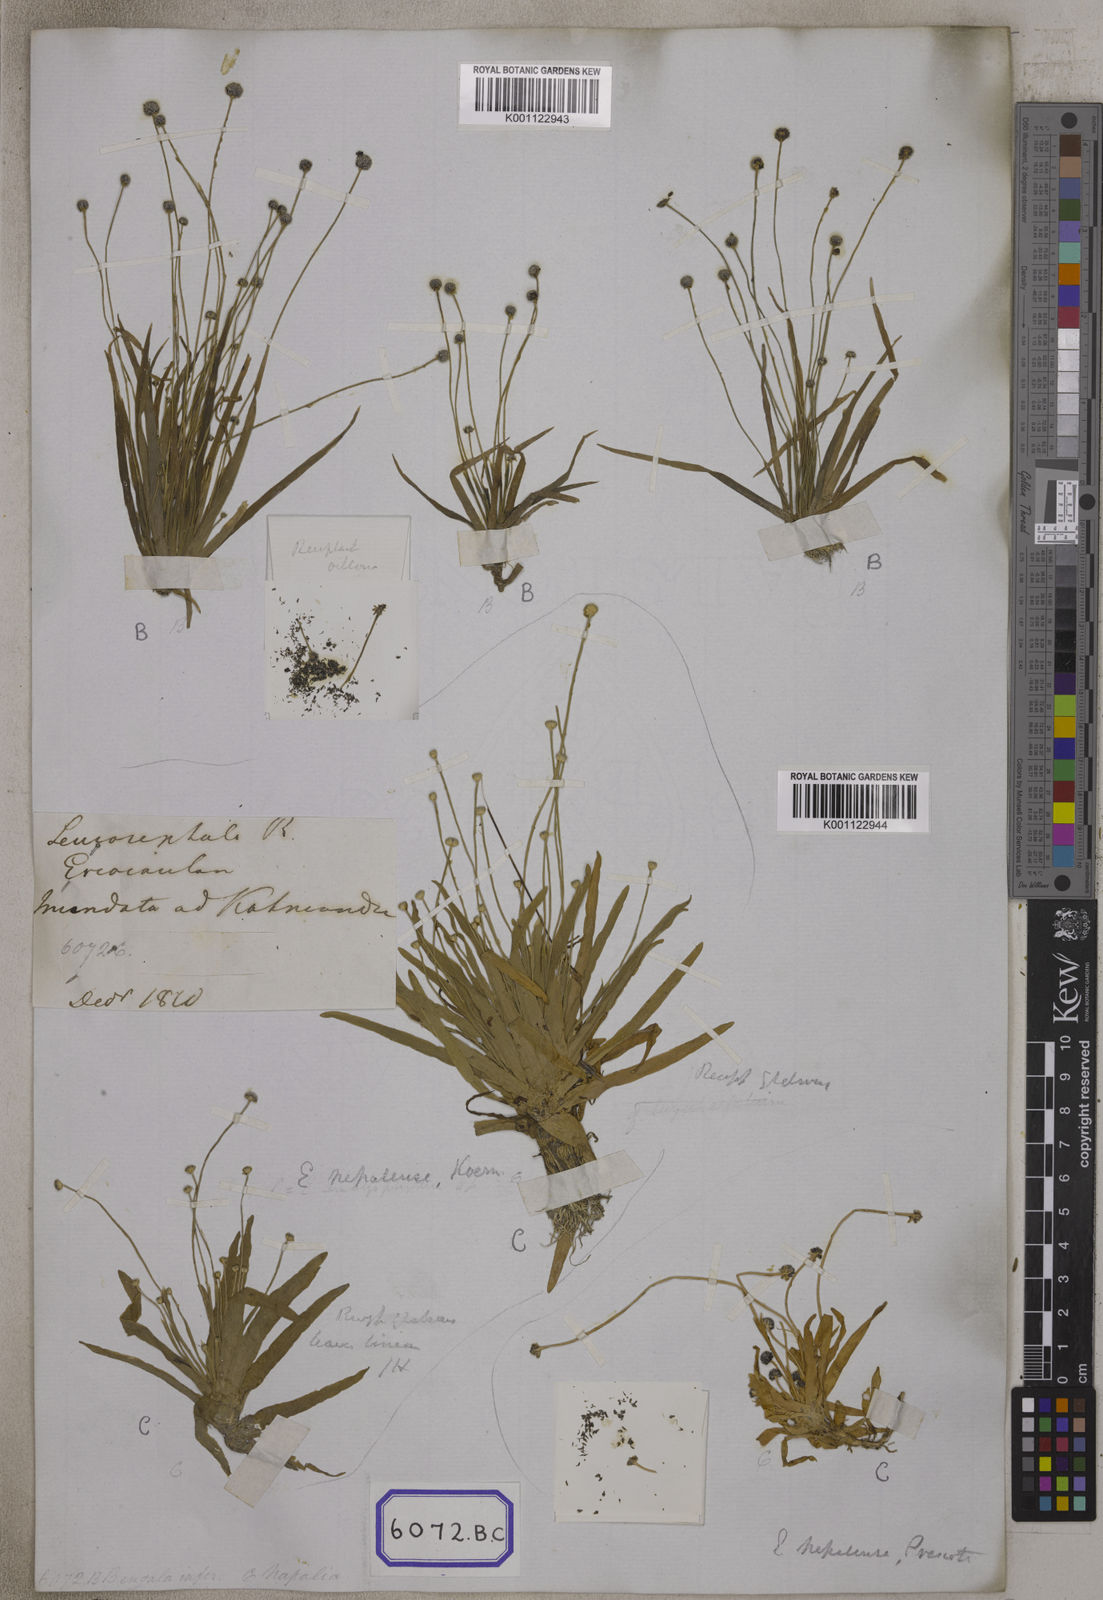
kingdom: Plantae
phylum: Tracheophyta
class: Liliopsida
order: Poales
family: Eriocaulaceae
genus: Eriocaulon
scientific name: Eriocaulon quinquangulare
